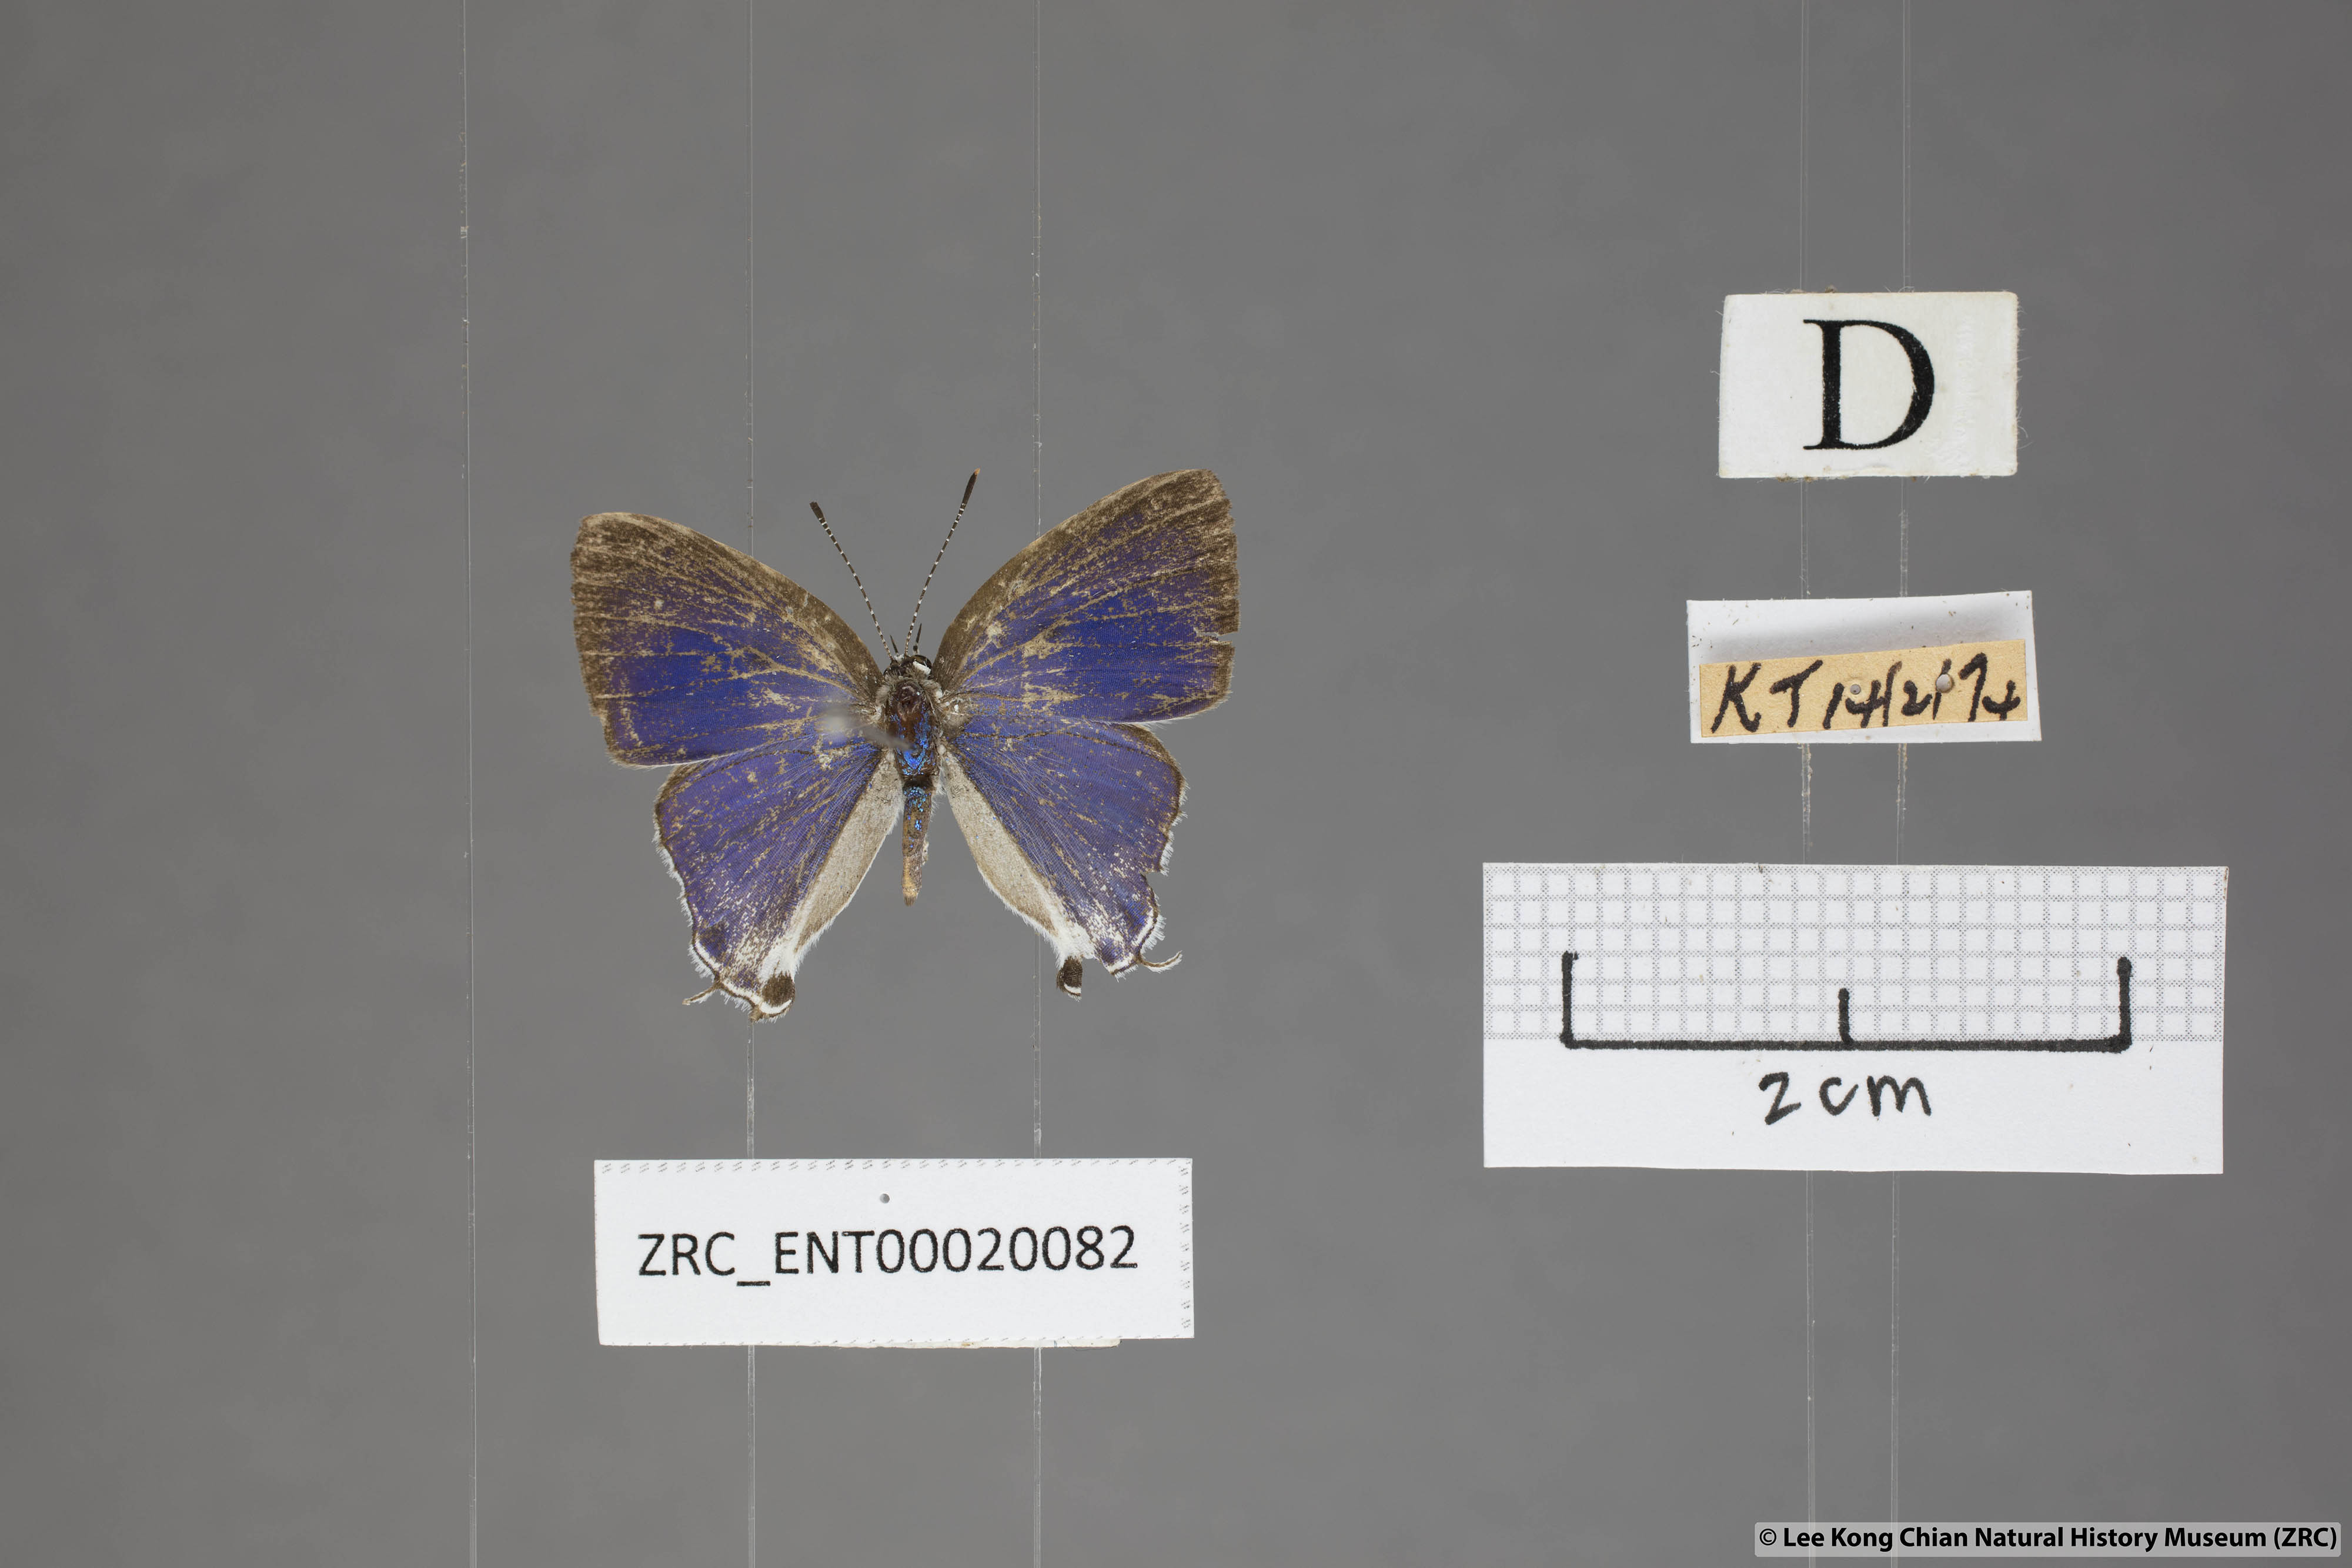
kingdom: Animalia
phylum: Arthropoda
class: Insecta
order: Lepidoptera
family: Lycaenidae
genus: Hypolycaena
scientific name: Hypolycaena amabilis
